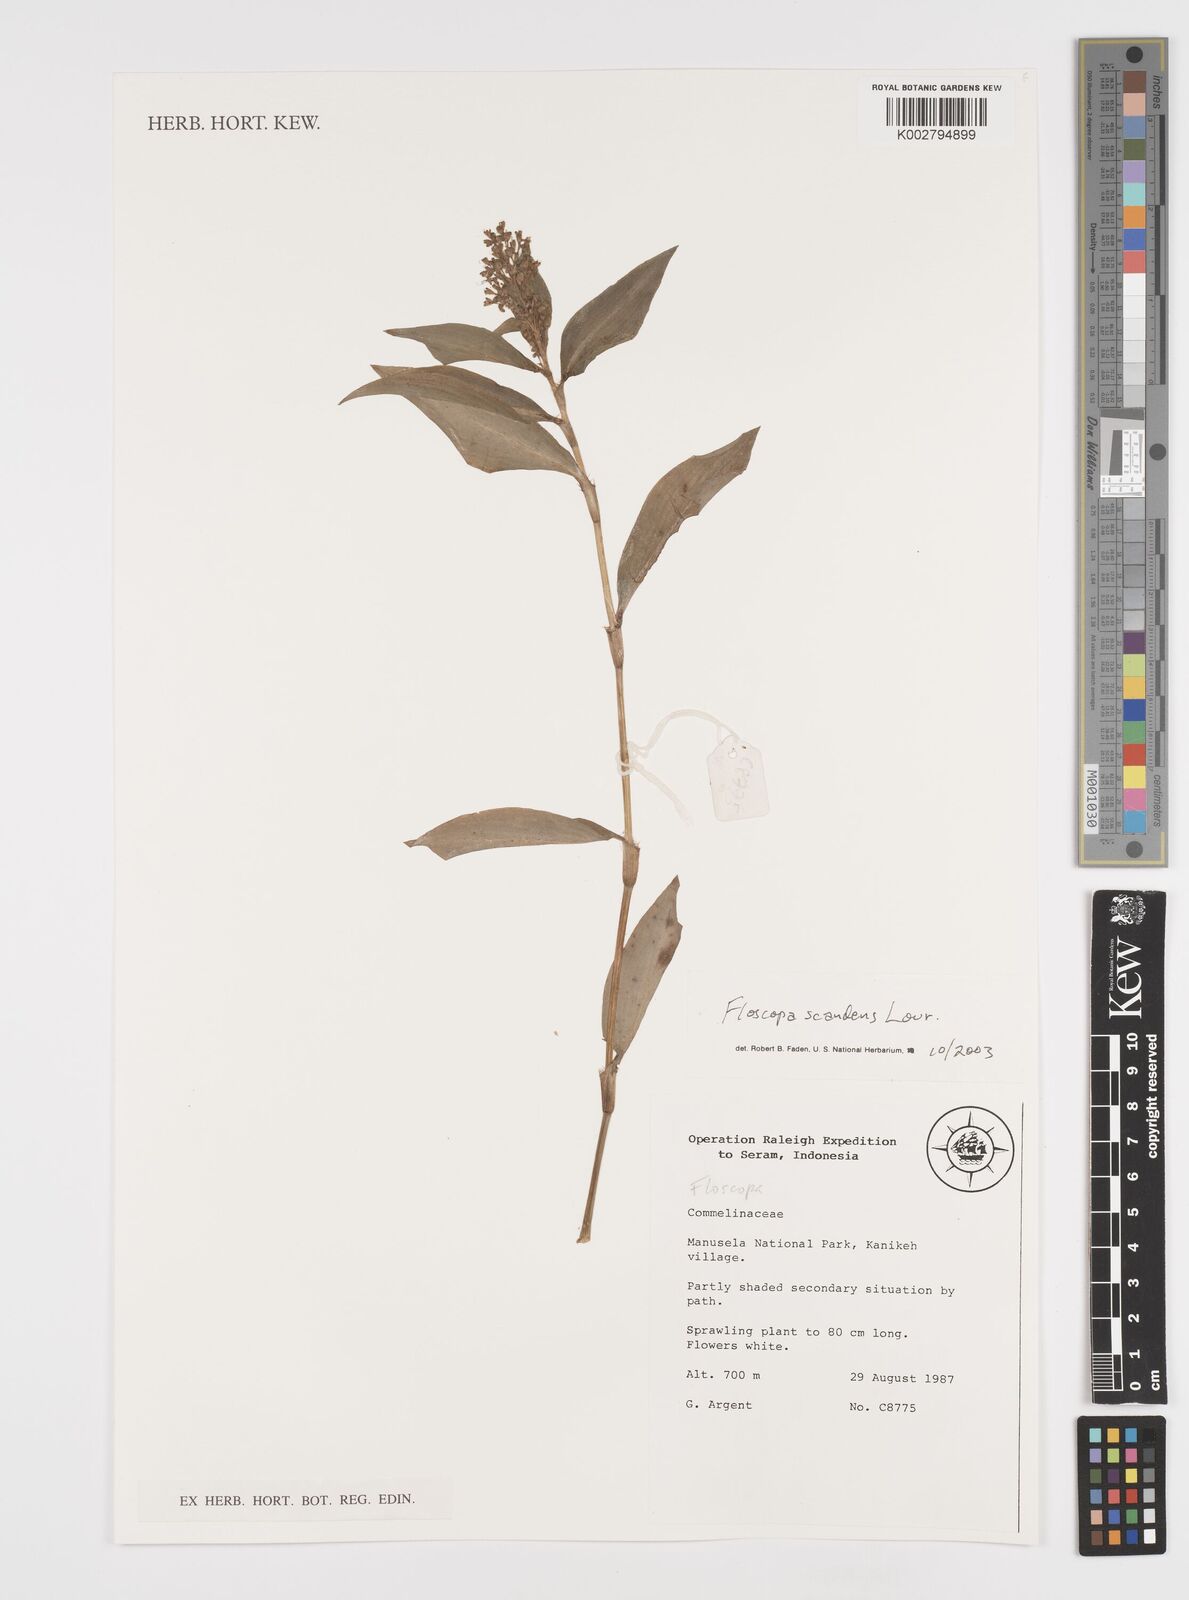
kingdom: Plantae
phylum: Tracheophyta
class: Liliopsida
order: Commelinales
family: Commelinaceae
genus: Floscopa
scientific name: Floscopa scandens
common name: Climbing flower cup
